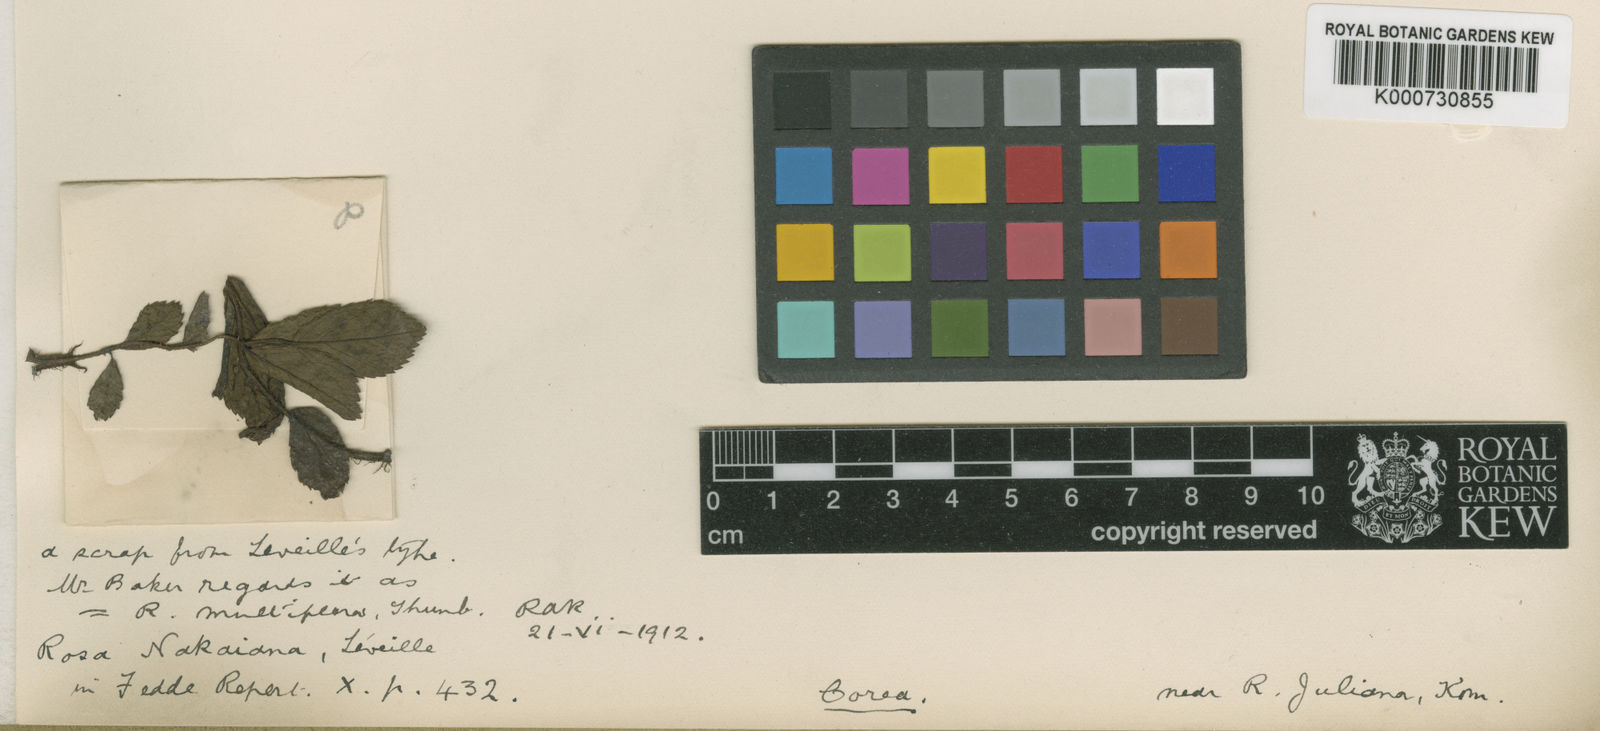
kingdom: Plantae
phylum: Tracheophyta
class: Magnoliopsida
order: Rosales
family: Rosaceae
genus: Rosa
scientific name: Rosa
